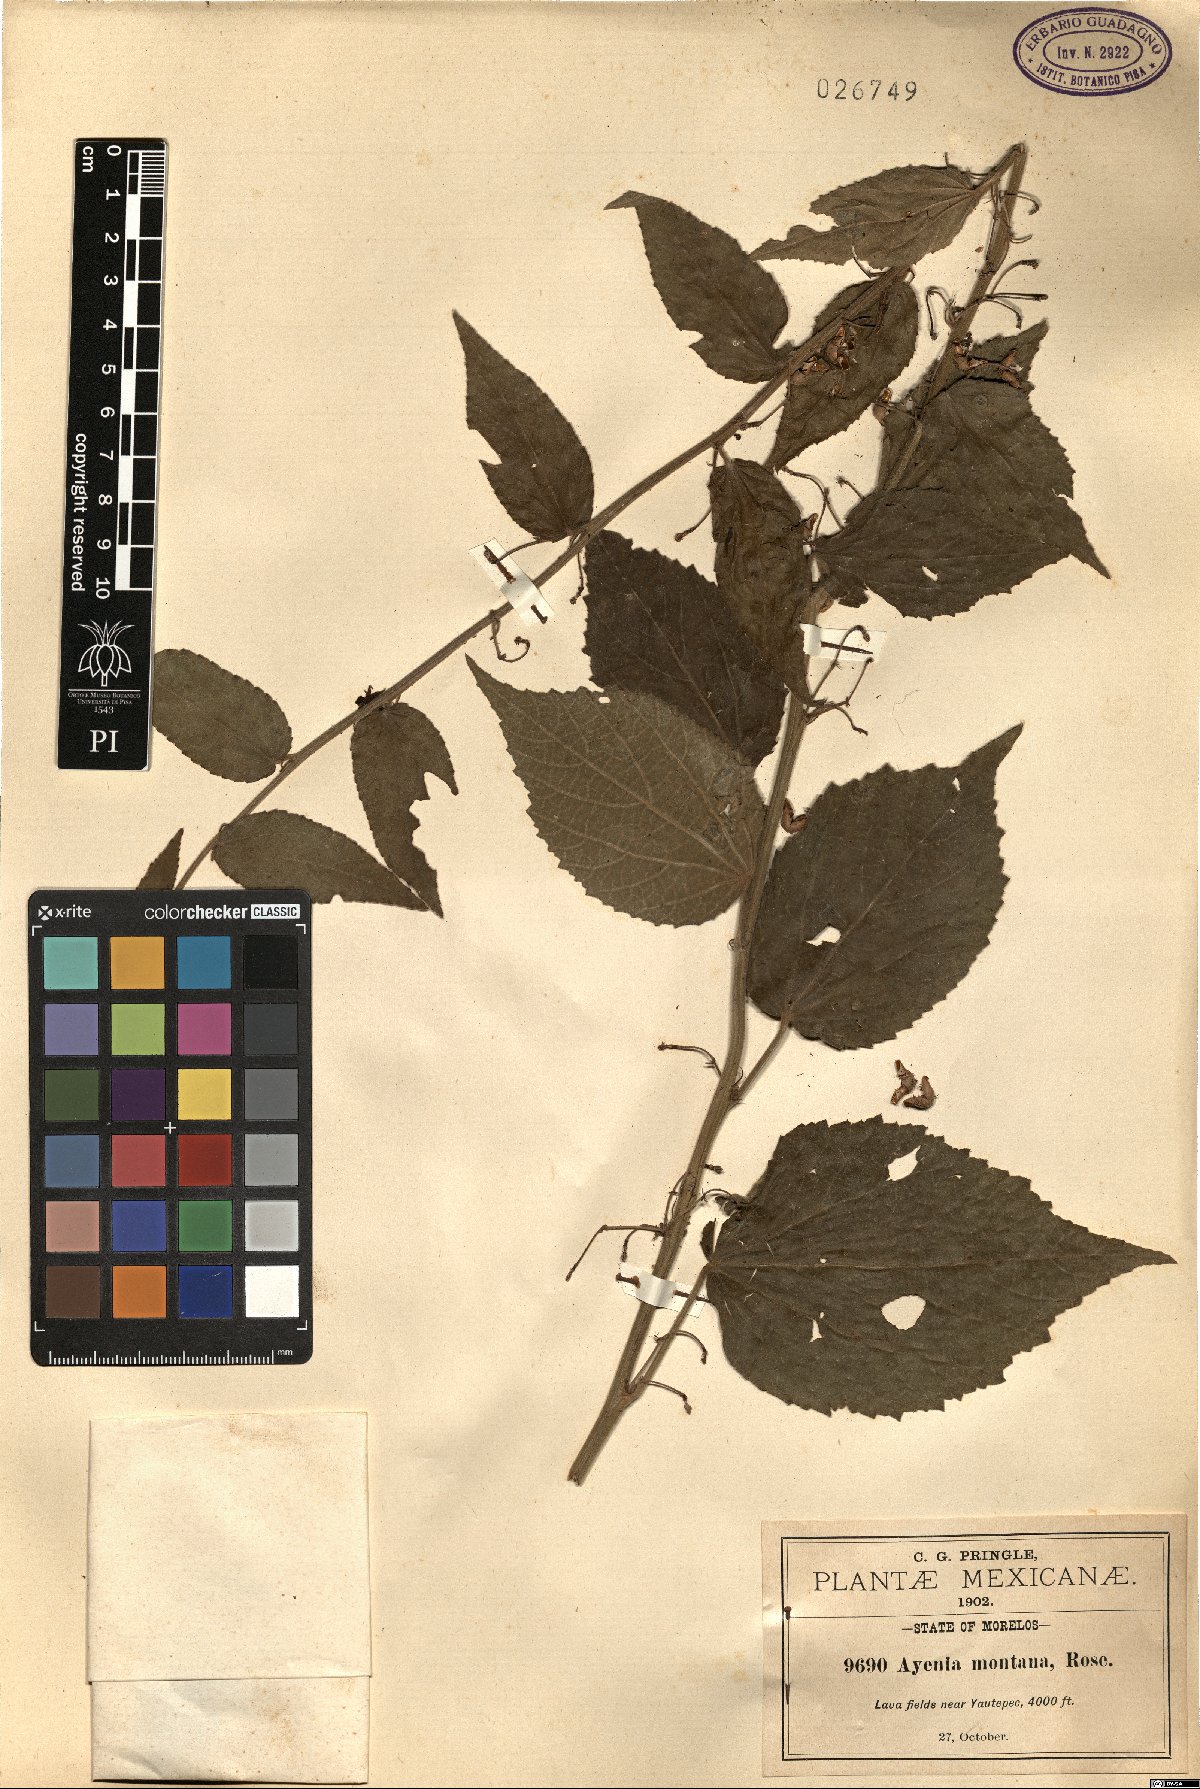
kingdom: Plantae
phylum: Tracheophyta
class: Magnoliopsida
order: Malvales
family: Malvaceae
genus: Ayenia
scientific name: Ayenia montana
